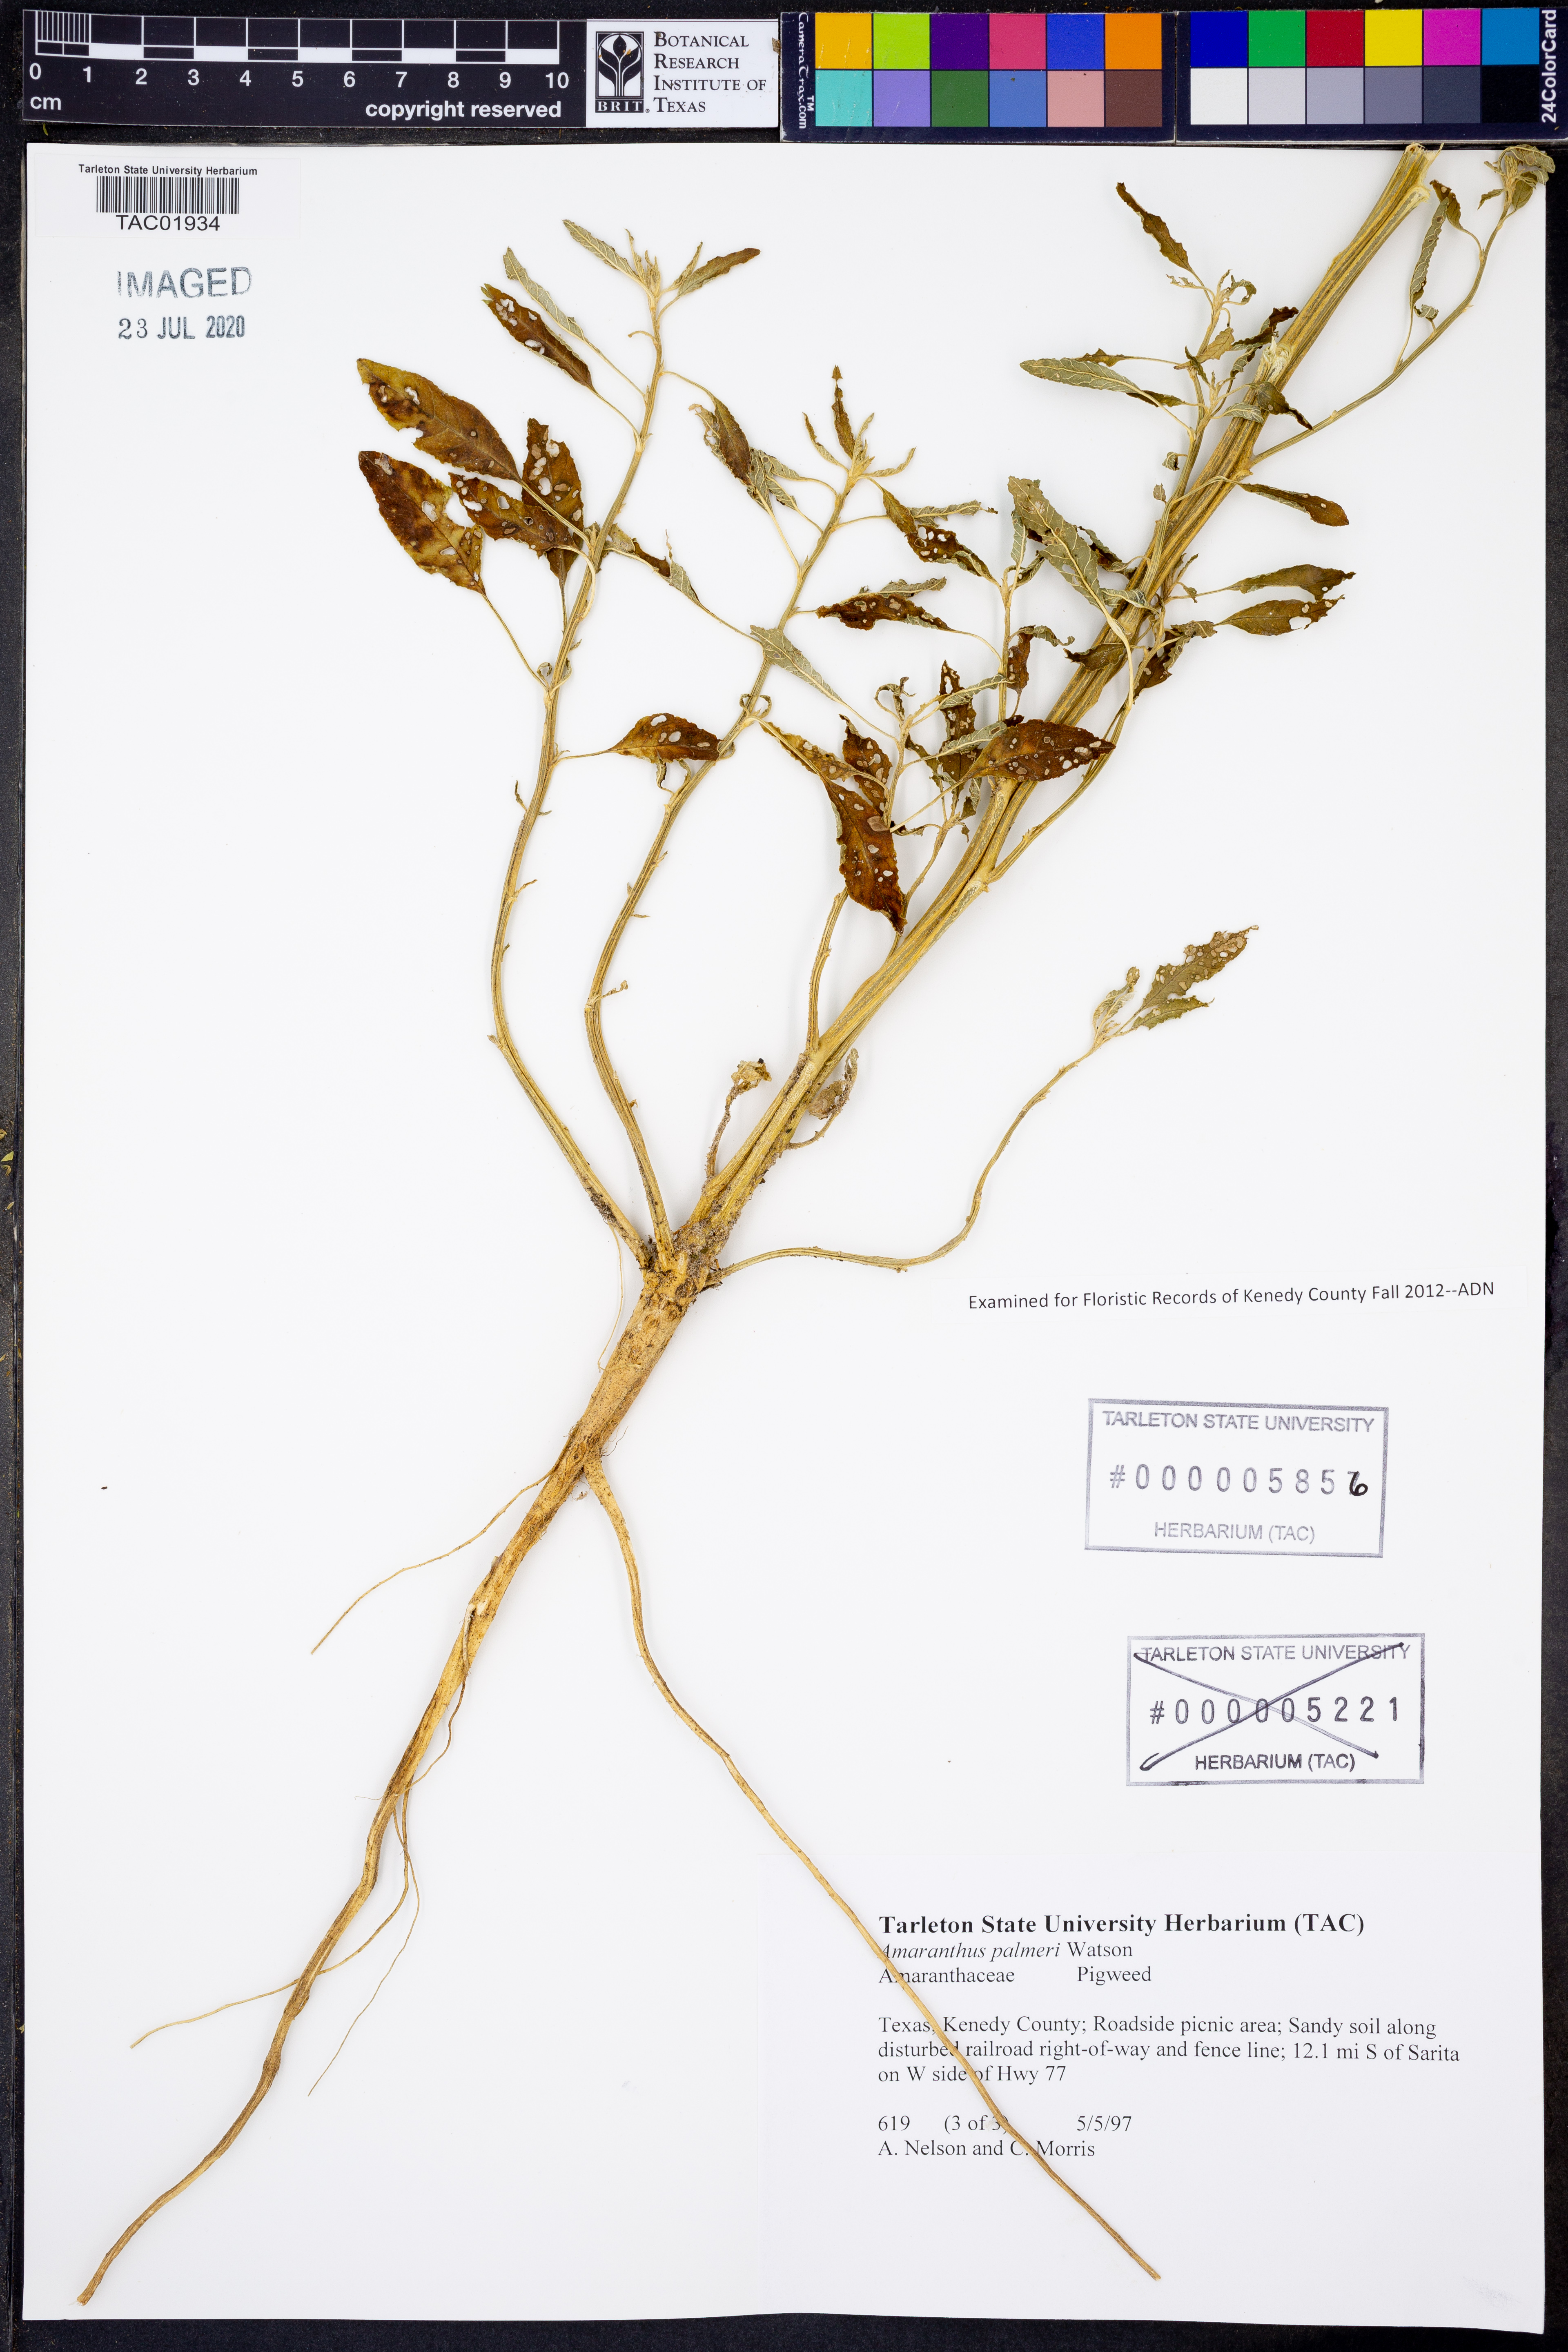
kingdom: Plantae
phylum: Tracheophyta
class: Magnoliopsida
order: Caryophyllales
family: Amaranthaceae
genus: Amaranthus
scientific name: Amaranthus palmeri
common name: Dioecious amaranth
